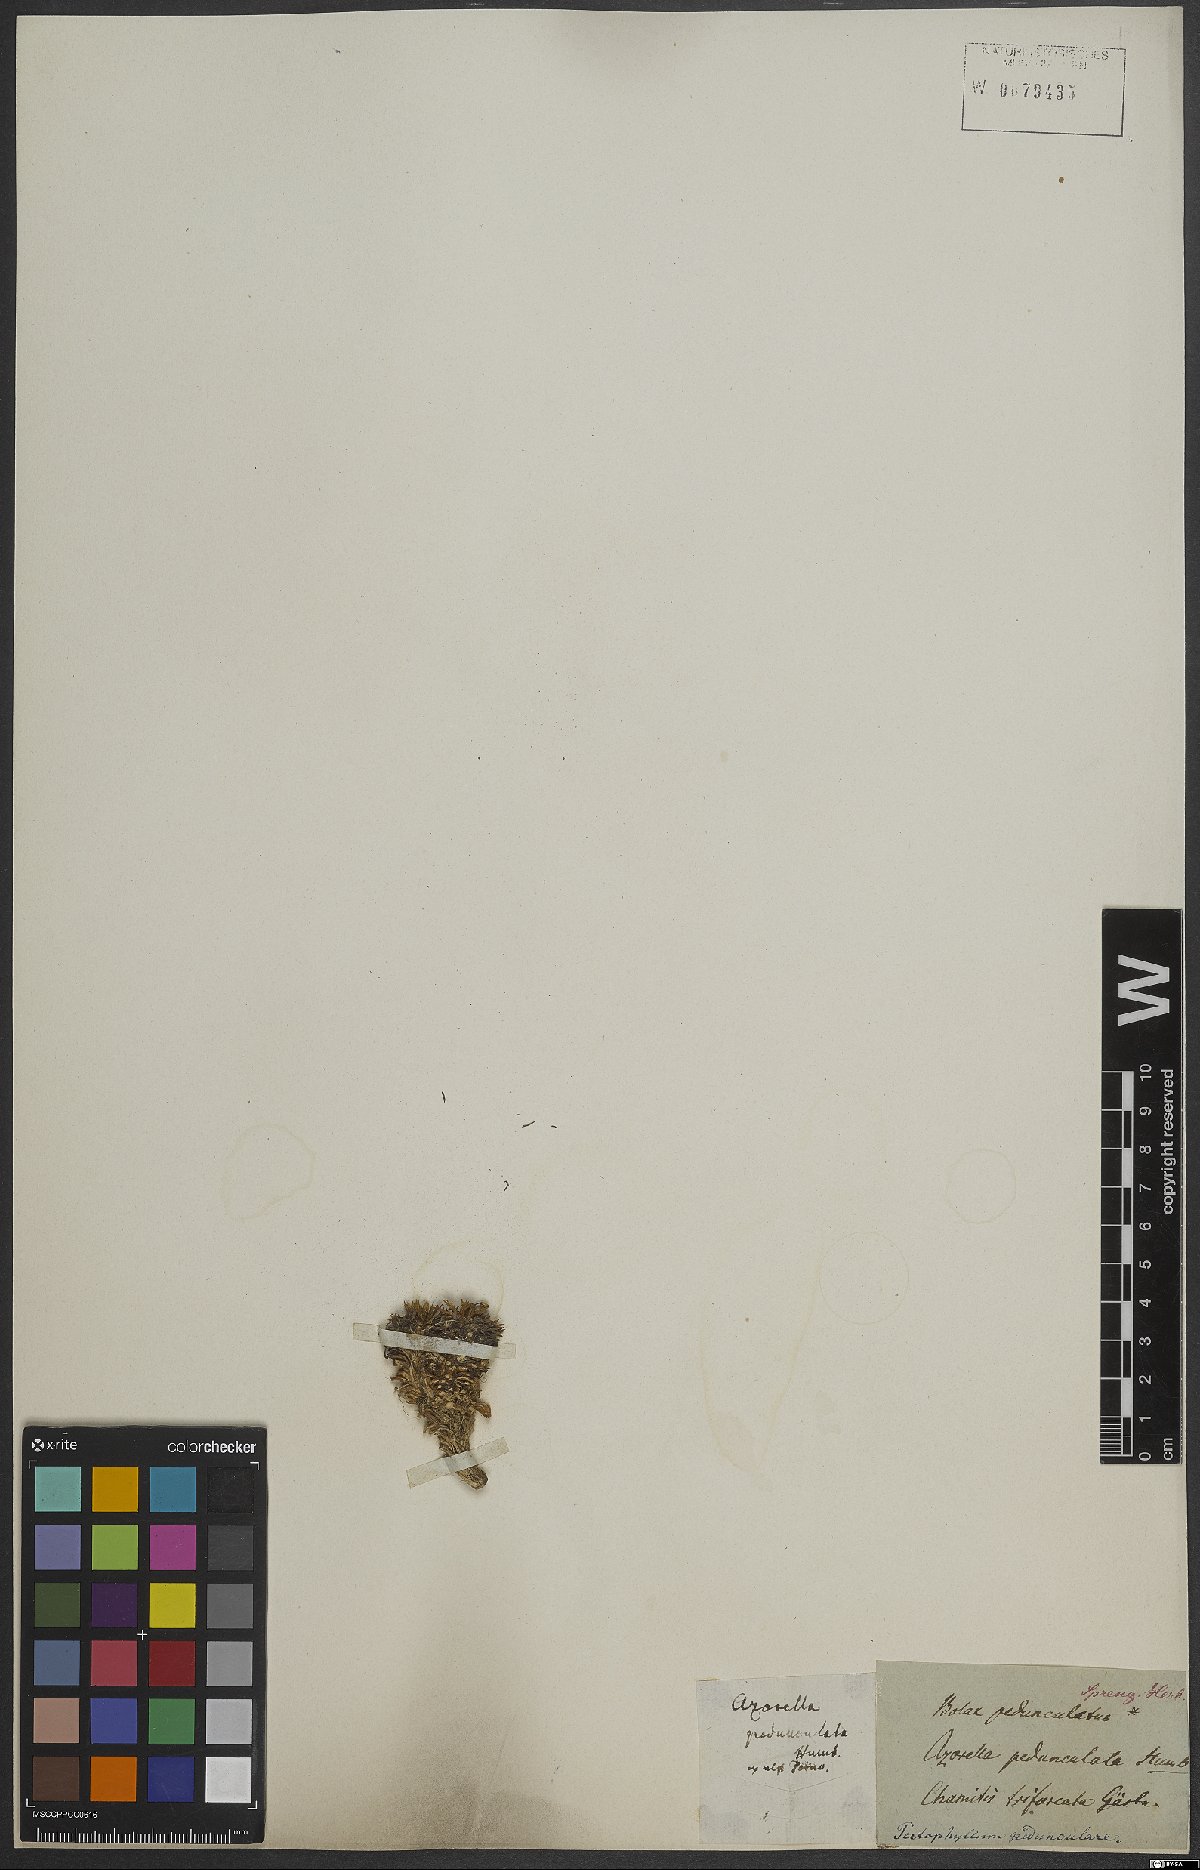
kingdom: Plantae
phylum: Tracheophyta
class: Magnoliopsida
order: Apiales
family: Apiaceae
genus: Azorella
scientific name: Azorella pedunculata
